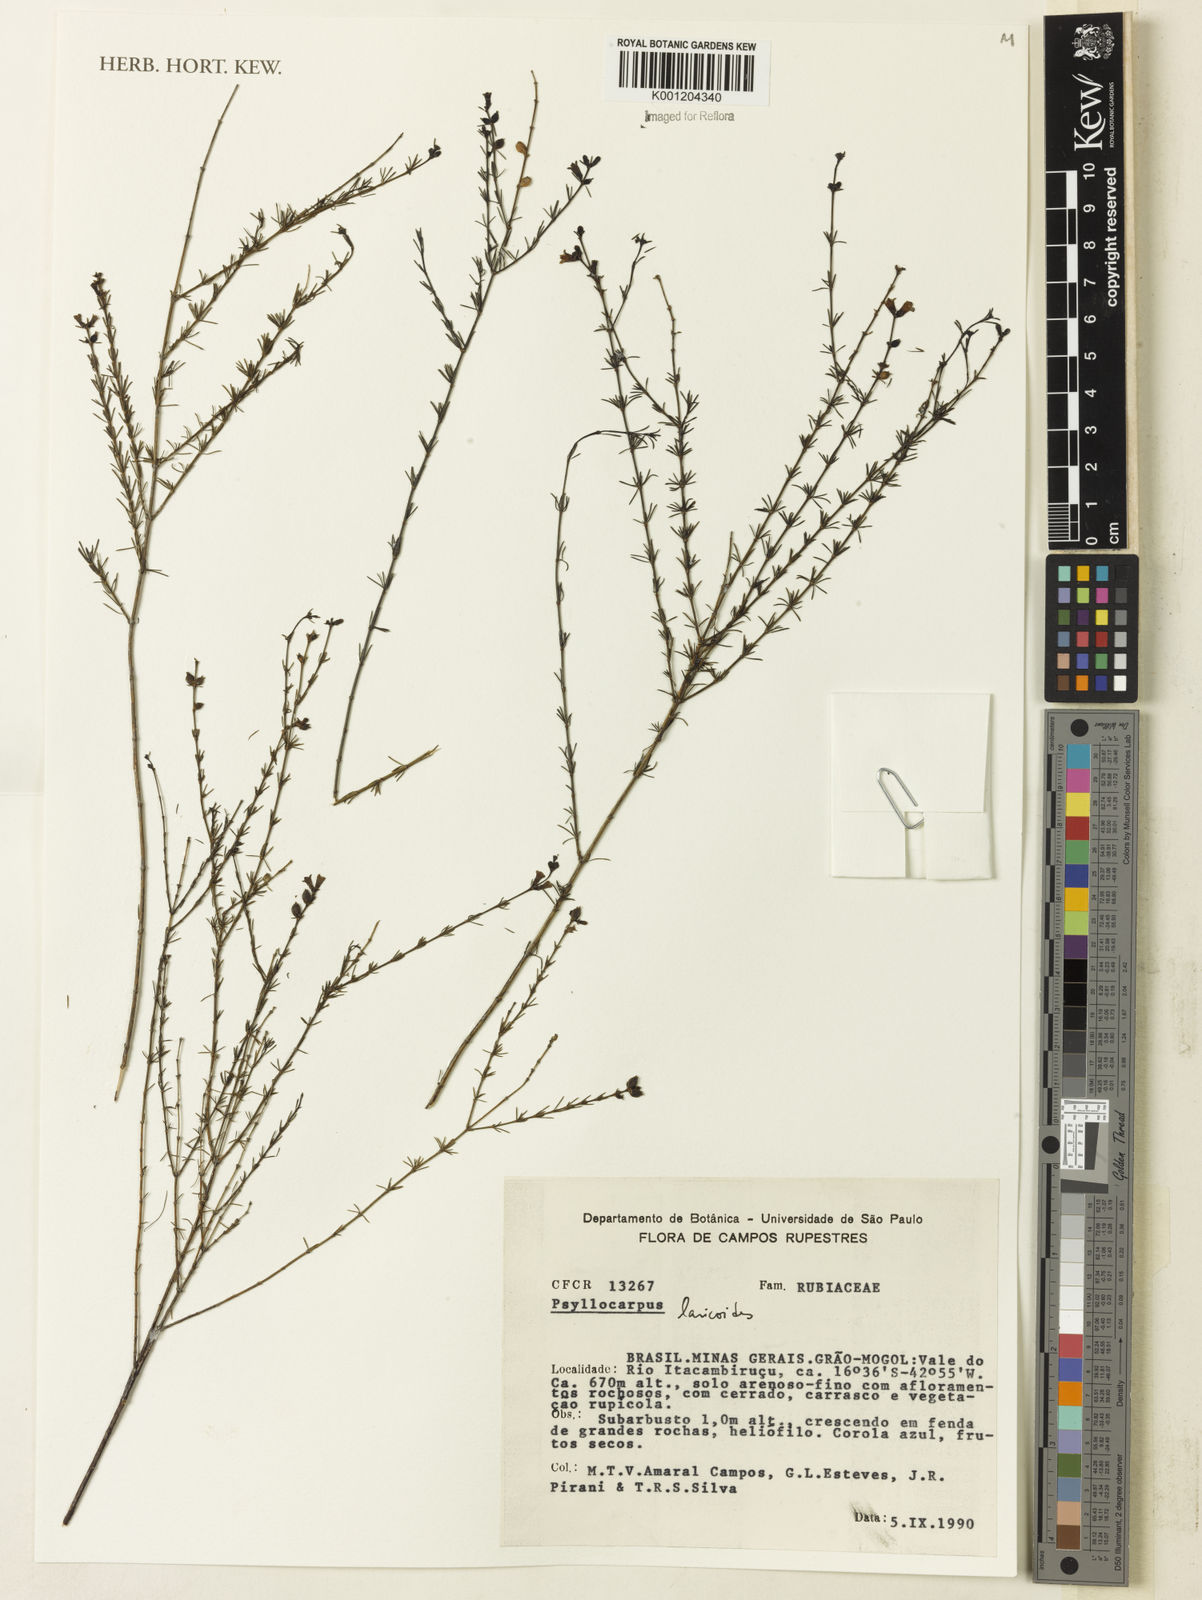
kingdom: Plantae
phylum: Tracheophyta
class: Magnoliopsida
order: Gentianales
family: Rubiaceae
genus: Psyllocarpus
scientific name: Psyllocarpus laricoides
